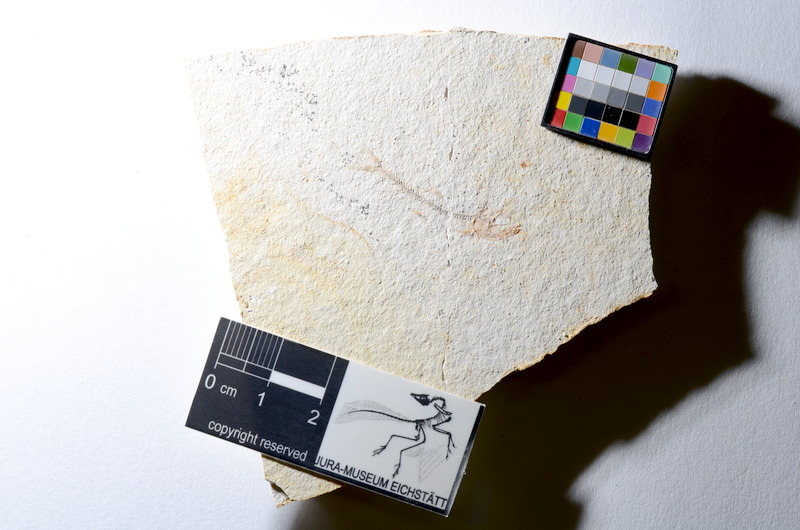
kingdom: Animalia
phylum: Chordata
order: Salmoniformes
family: Orthogonikleithridae
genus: Orthogonikleithrus
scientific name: Orthogonikleithrus hoelli
